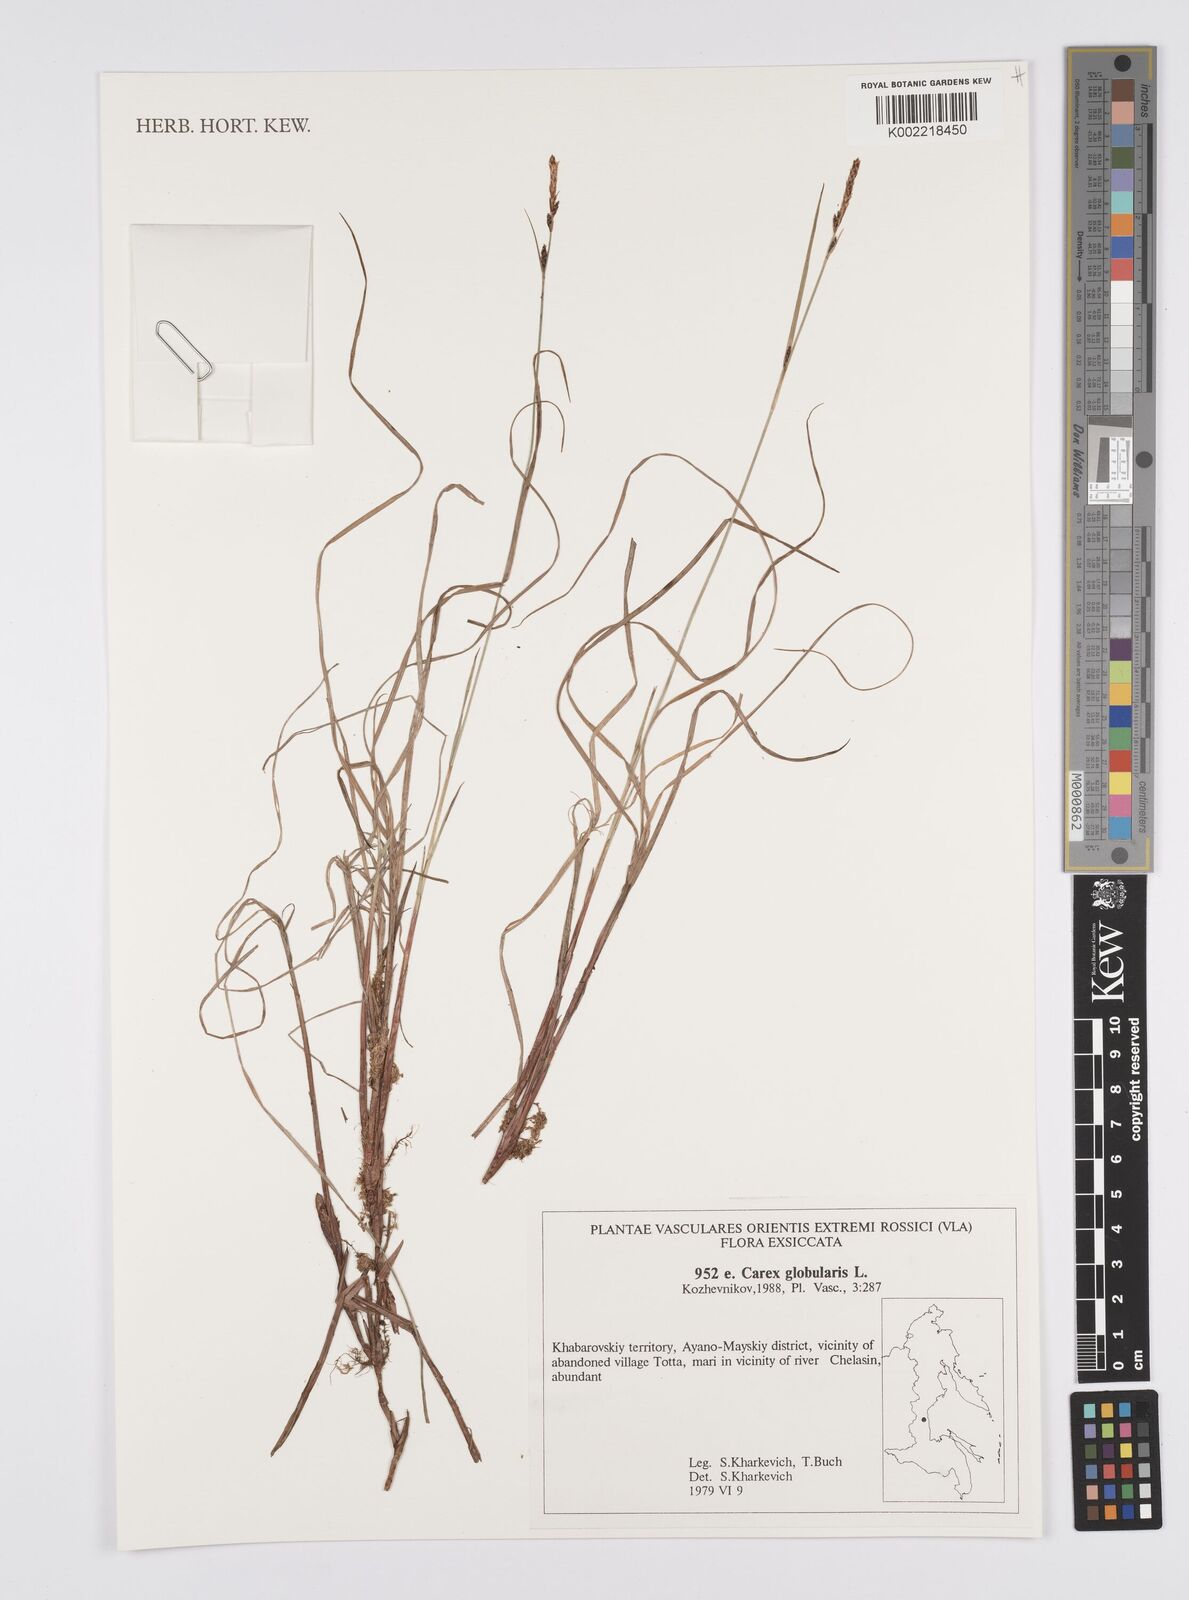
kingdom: Plantae
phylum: Tracheophyta
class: Liliopsida
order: Poales
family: Cyperaceae
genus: Carex
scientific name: Carex globularis
